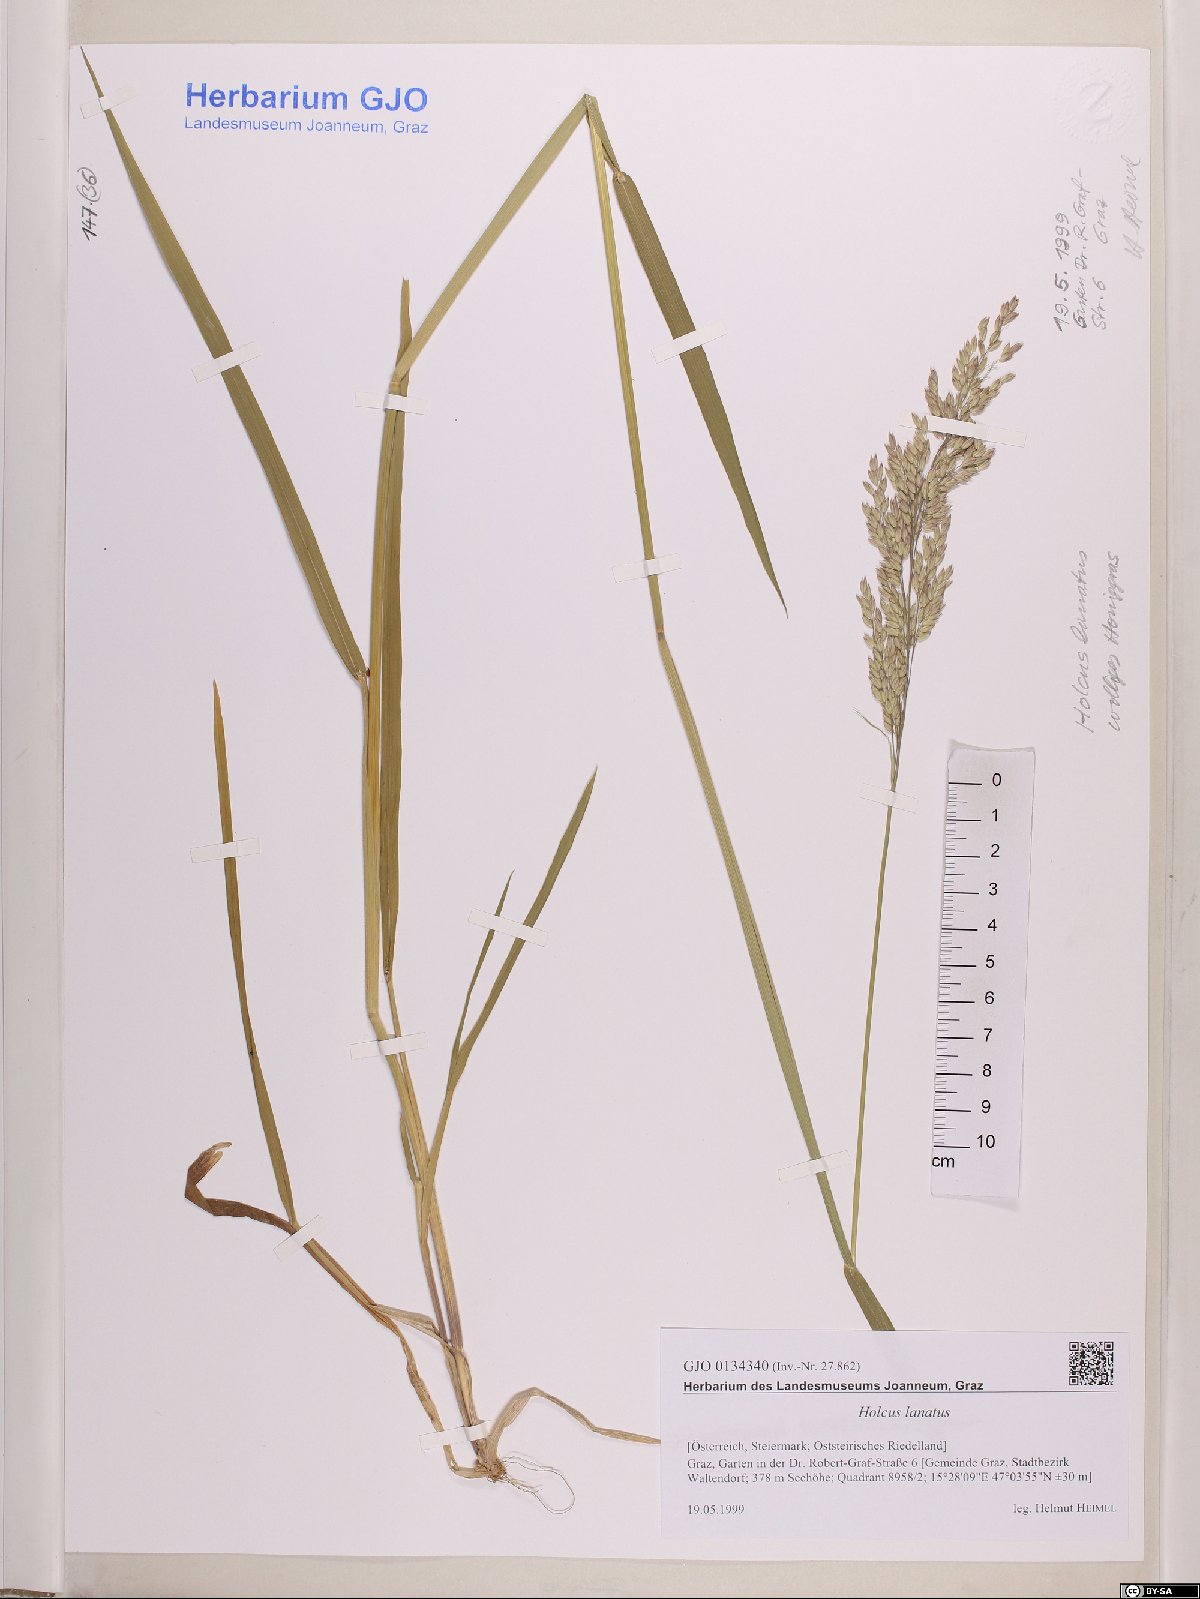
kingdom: Plantae
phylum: Tracheophyta
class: Liliopsida
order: Poales
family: Poaceae
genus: Holcus
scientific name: Holcus lanatus
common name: Yorkshire-fog
